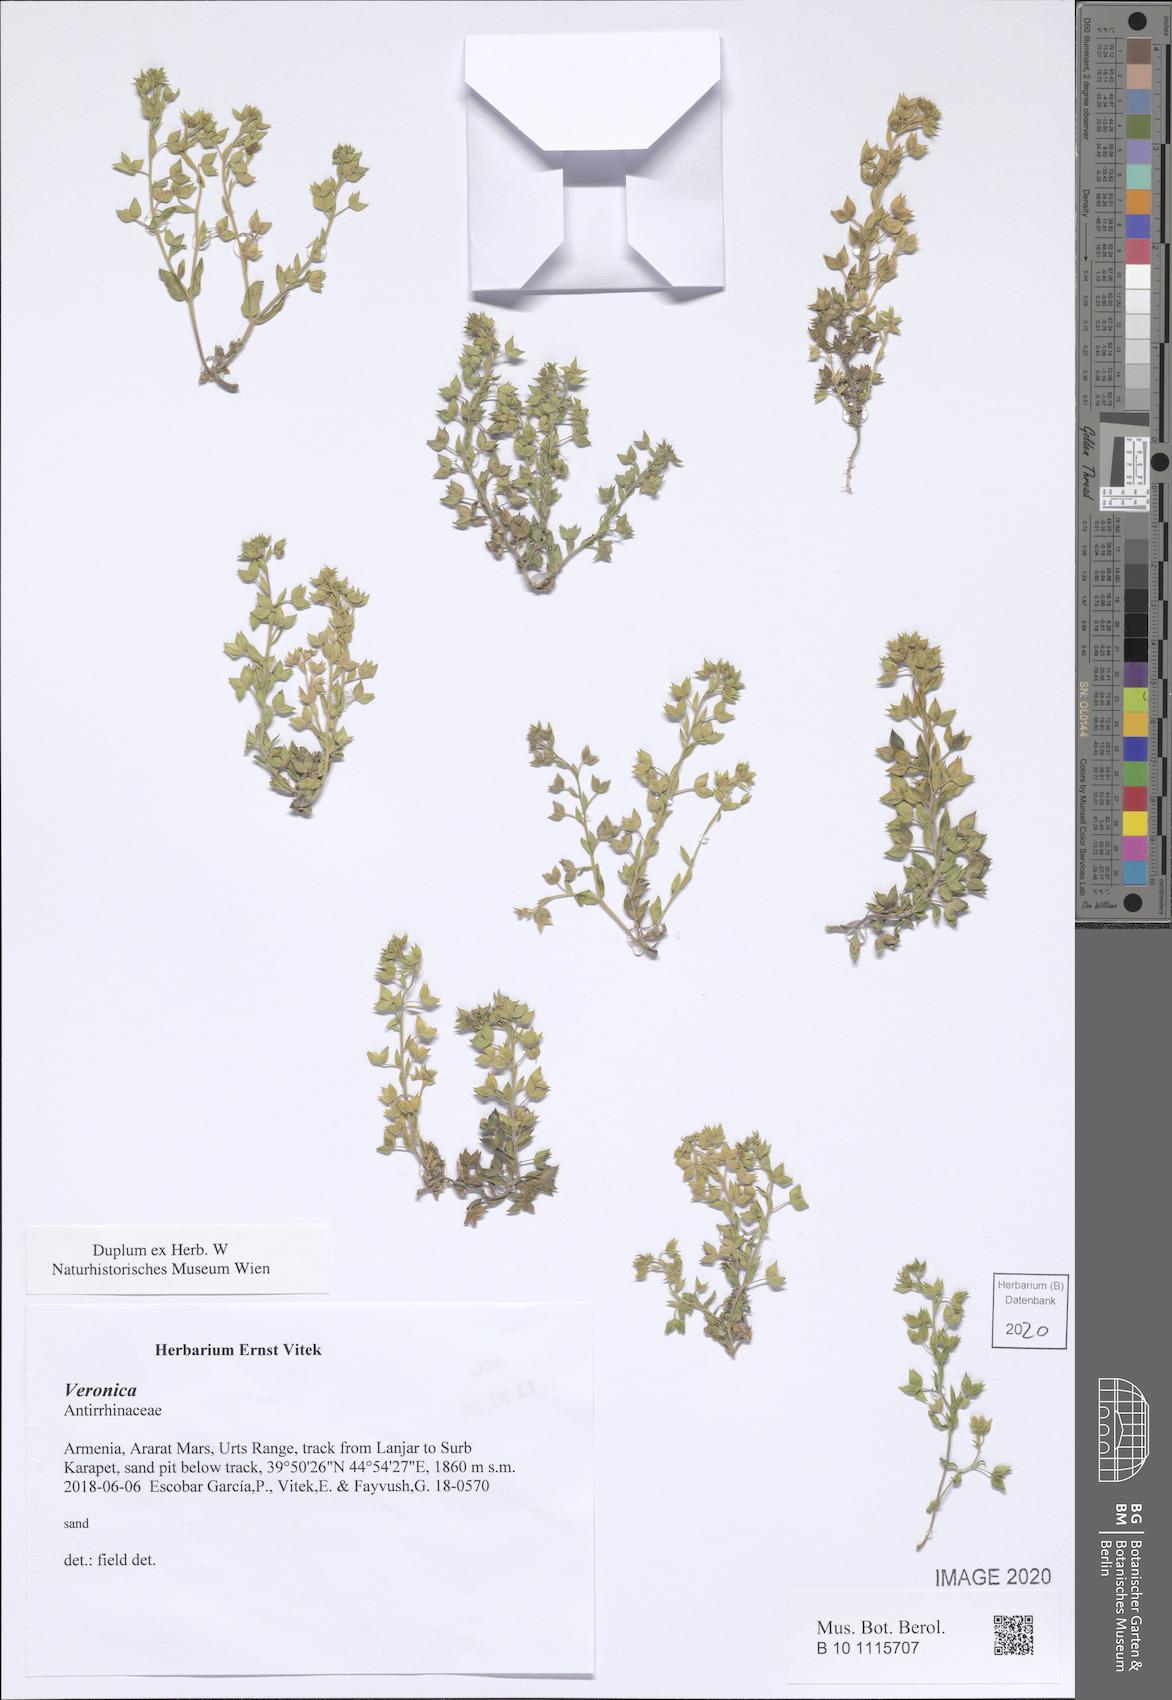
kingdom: Plantae
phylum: Tracheophyta
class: Magnoliopsida
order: Lamiales
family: Plantaginaceae
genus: Veronica
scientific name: Veronica
